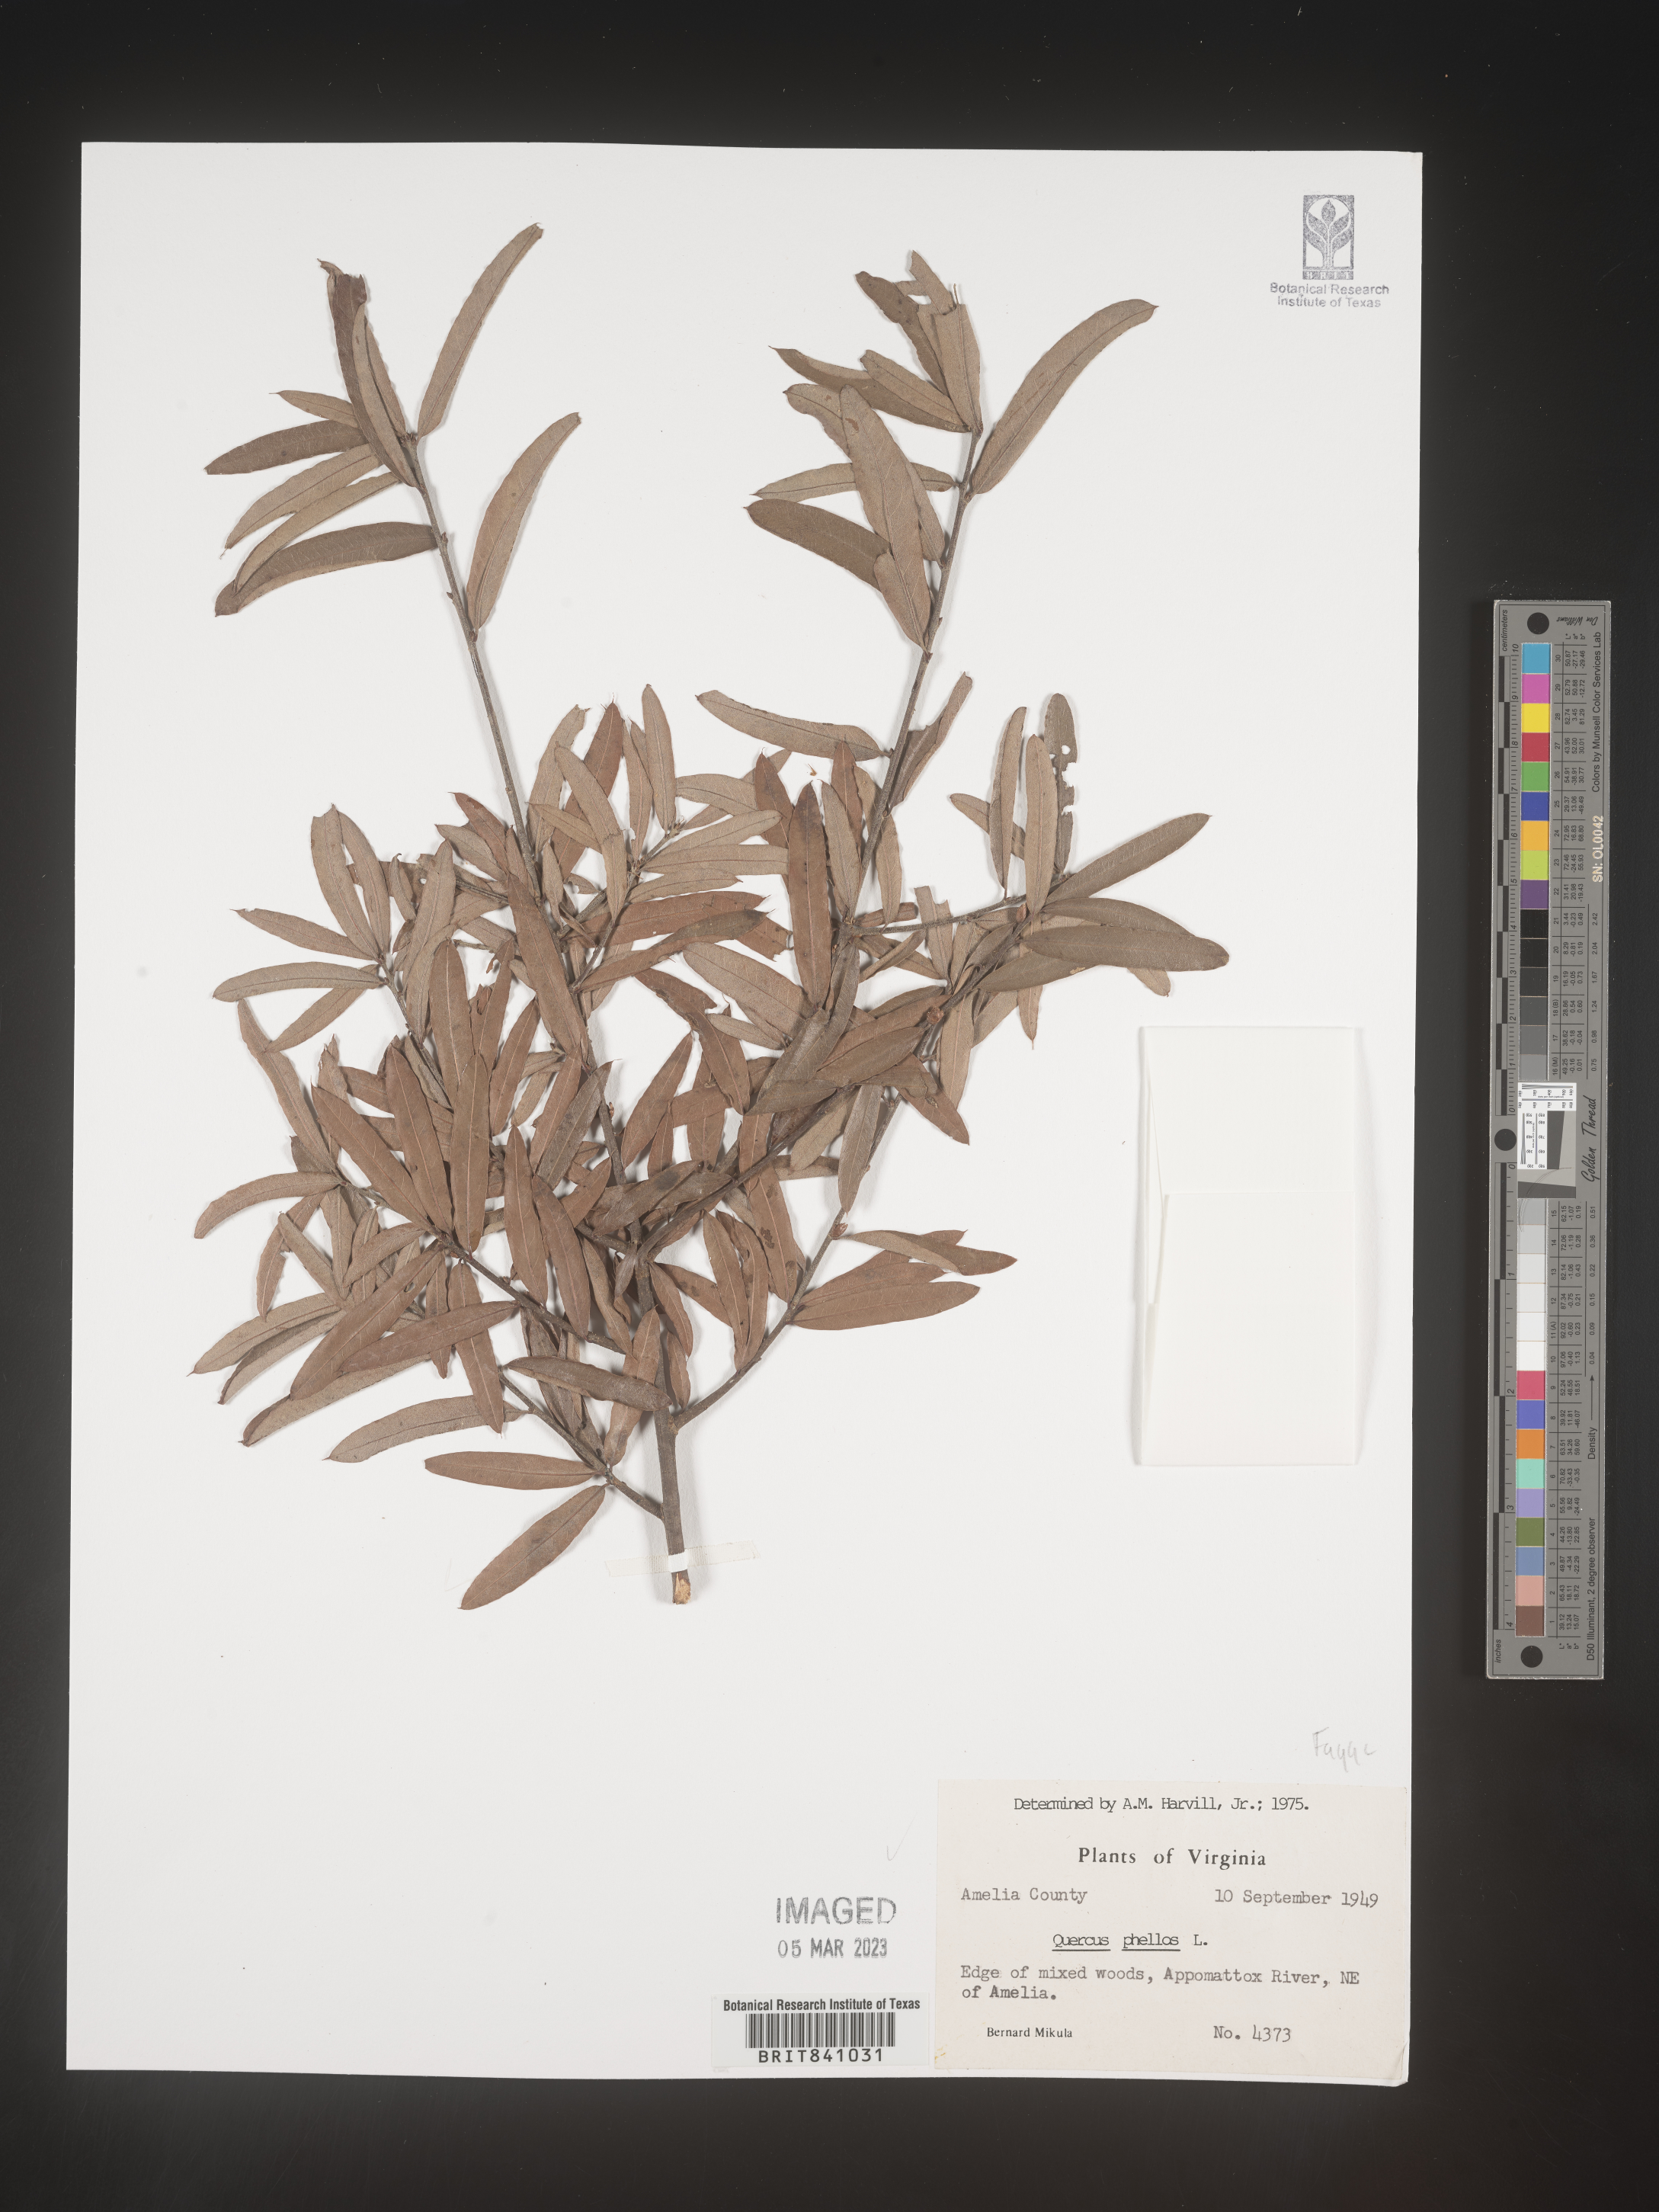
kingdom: Plantae
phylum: Tracheophyta
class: Magnoliopsida
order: Fagales
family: Fagaceae
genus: Quercus
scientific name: Quercus phellos
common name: Willow oak
